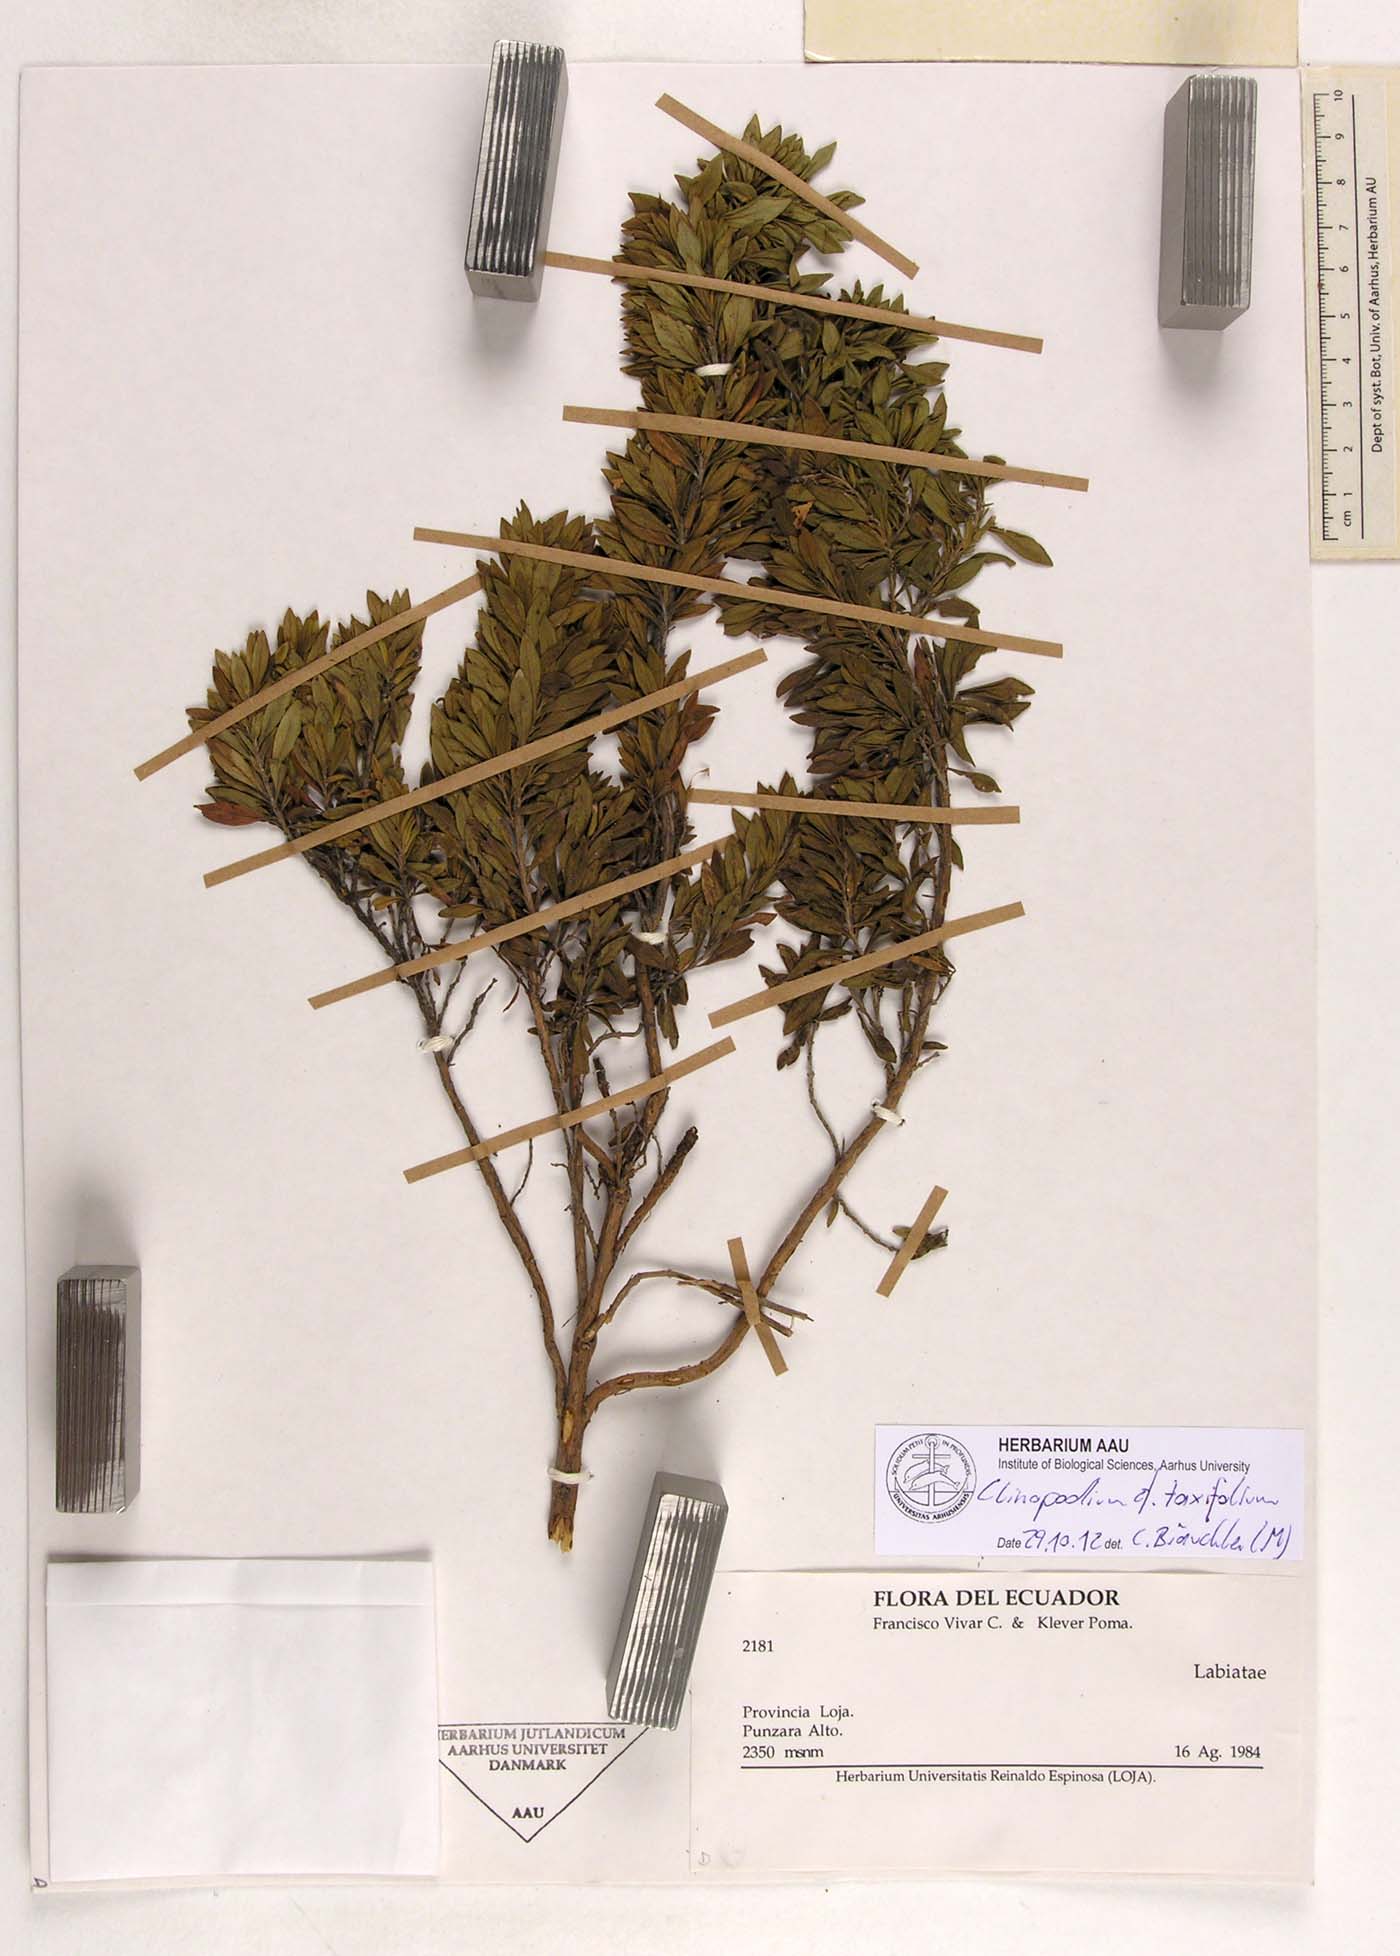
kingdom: Plantae
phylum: Tracheophyta
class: Magnoliopsida
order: Lamiales
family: Lamiaceae
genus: Clinopodium
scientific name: Clinopodium taxifolium
